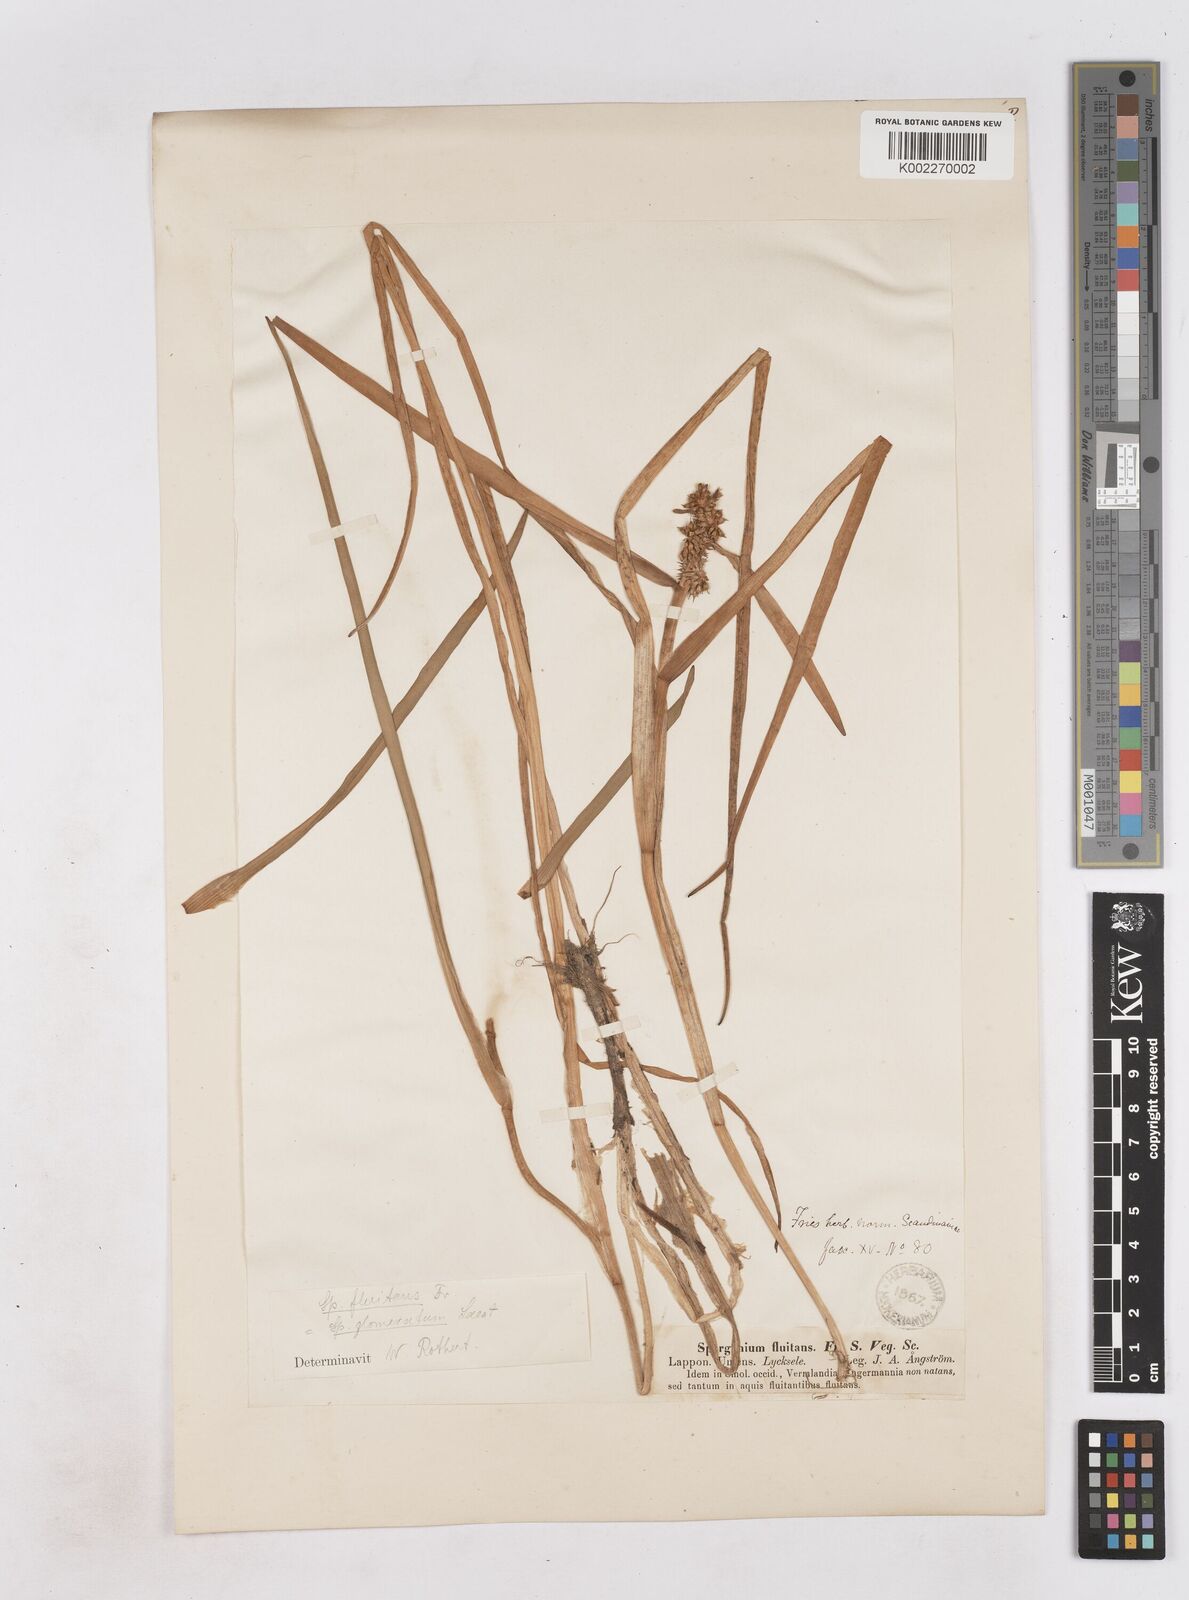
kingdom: Plantae
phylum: Tracheophyta
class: Liliopsida
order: Poales
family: Typhaceae
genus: Sparganium
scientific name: Sparganium angustifolium
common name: Floating bur-reed
